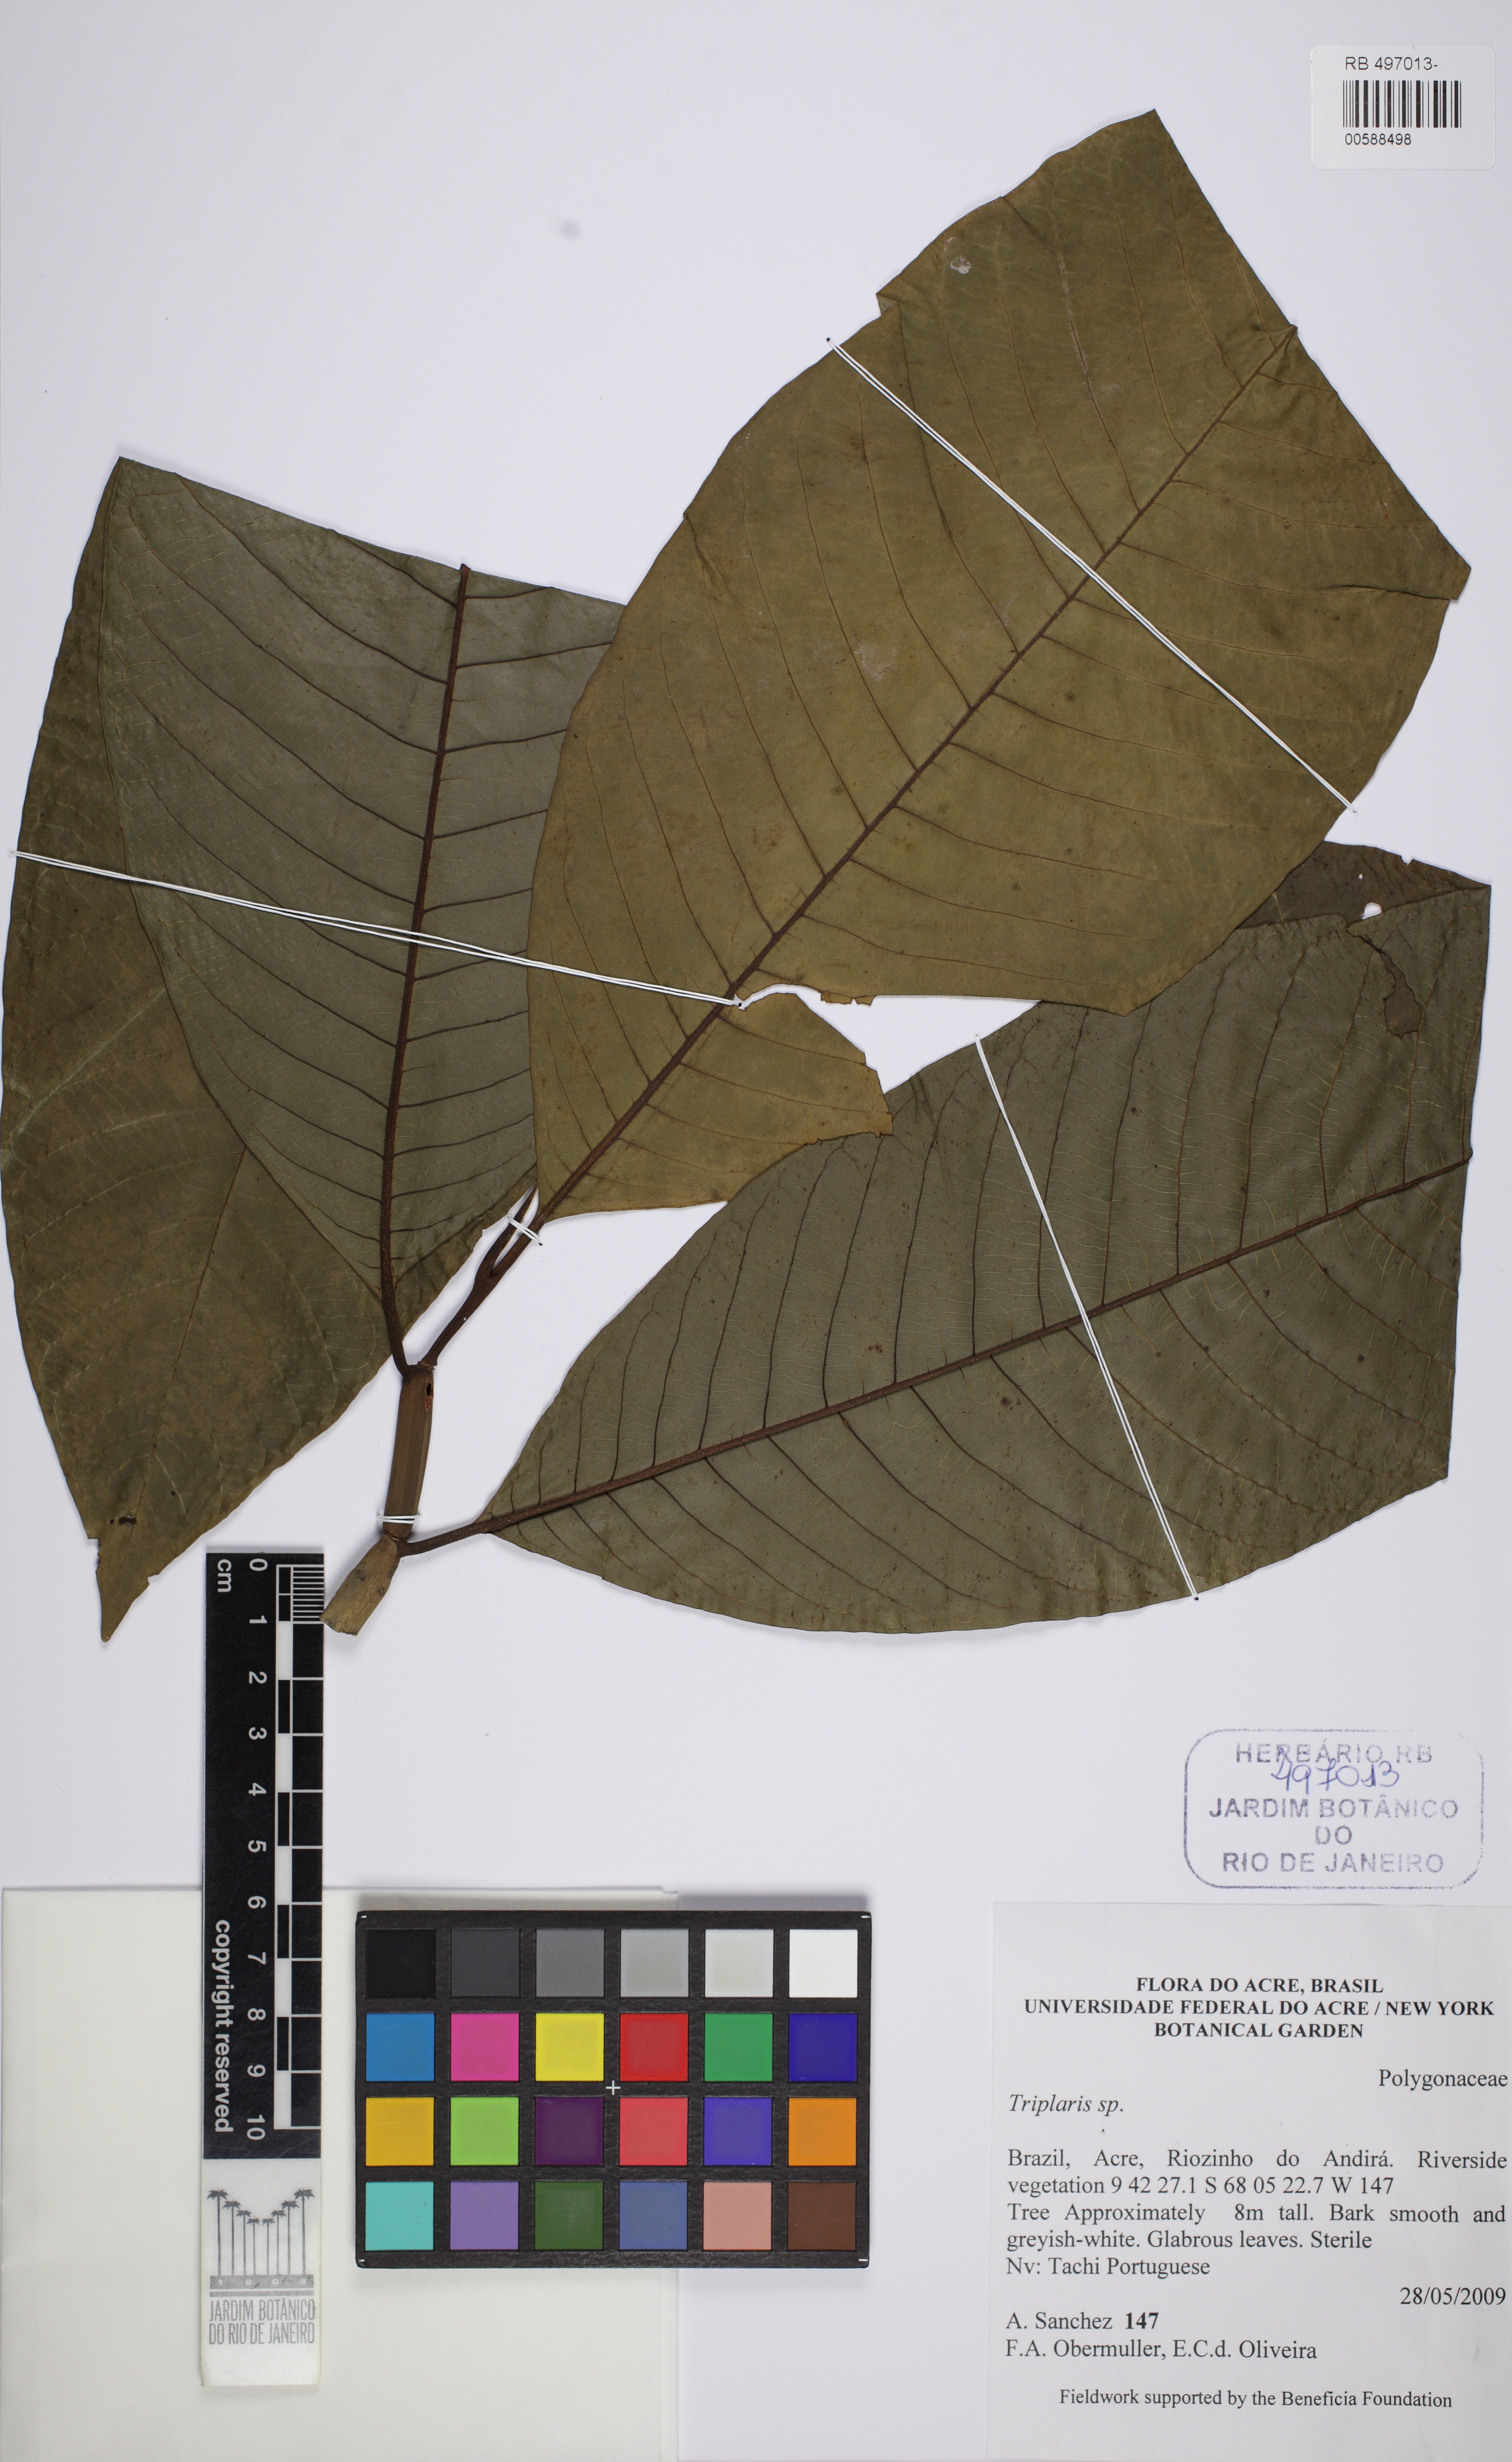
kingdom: Plantae
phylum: Tracheophyta
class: Magnoliopsida
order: Caryophyllales
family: Polygonaceae
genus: Triplaris
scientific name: Triplaris
